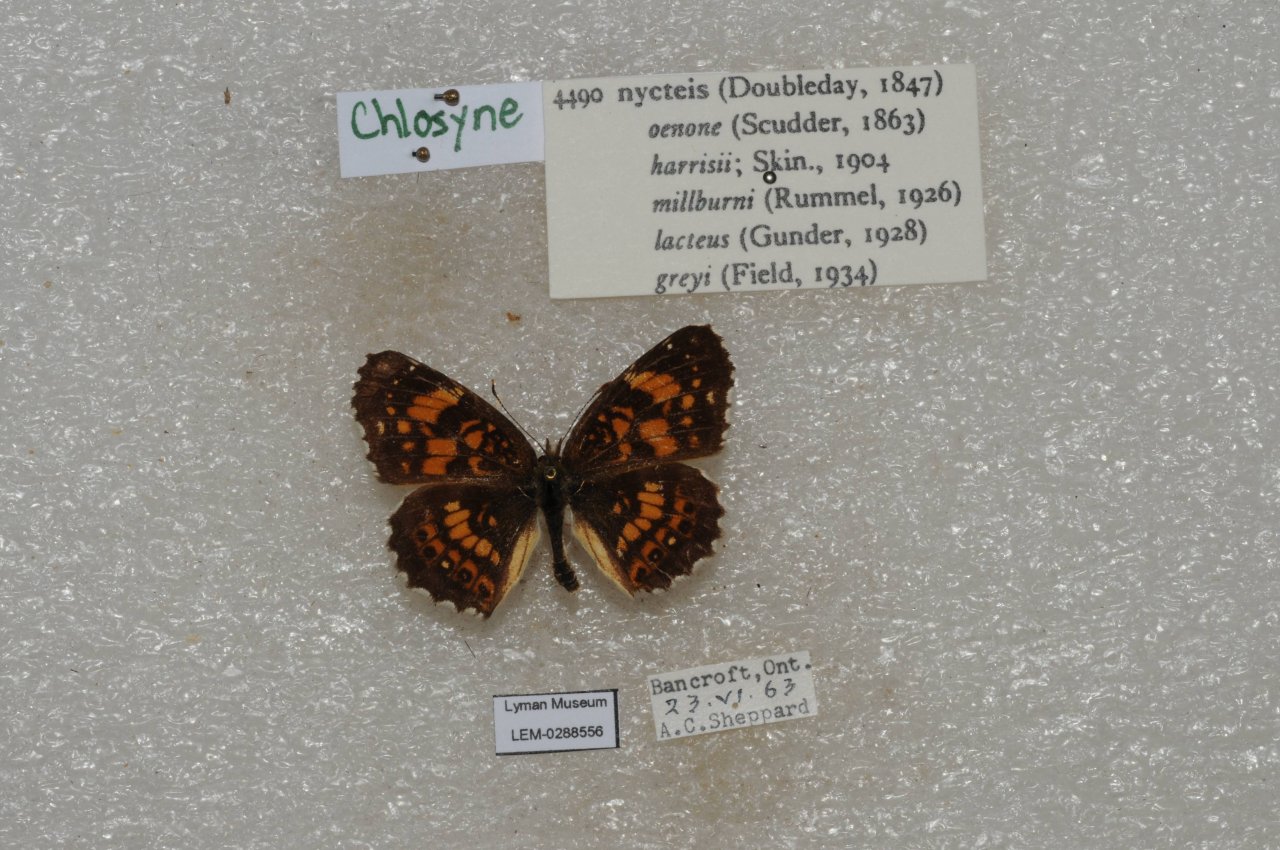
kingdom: Animalia
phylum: Arthropoda
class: Insecta
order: Lepidoptera
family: Nymphalidae
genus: Chlosyne
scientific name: Chlosyne nycteis
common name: Silvery Checkerspot
